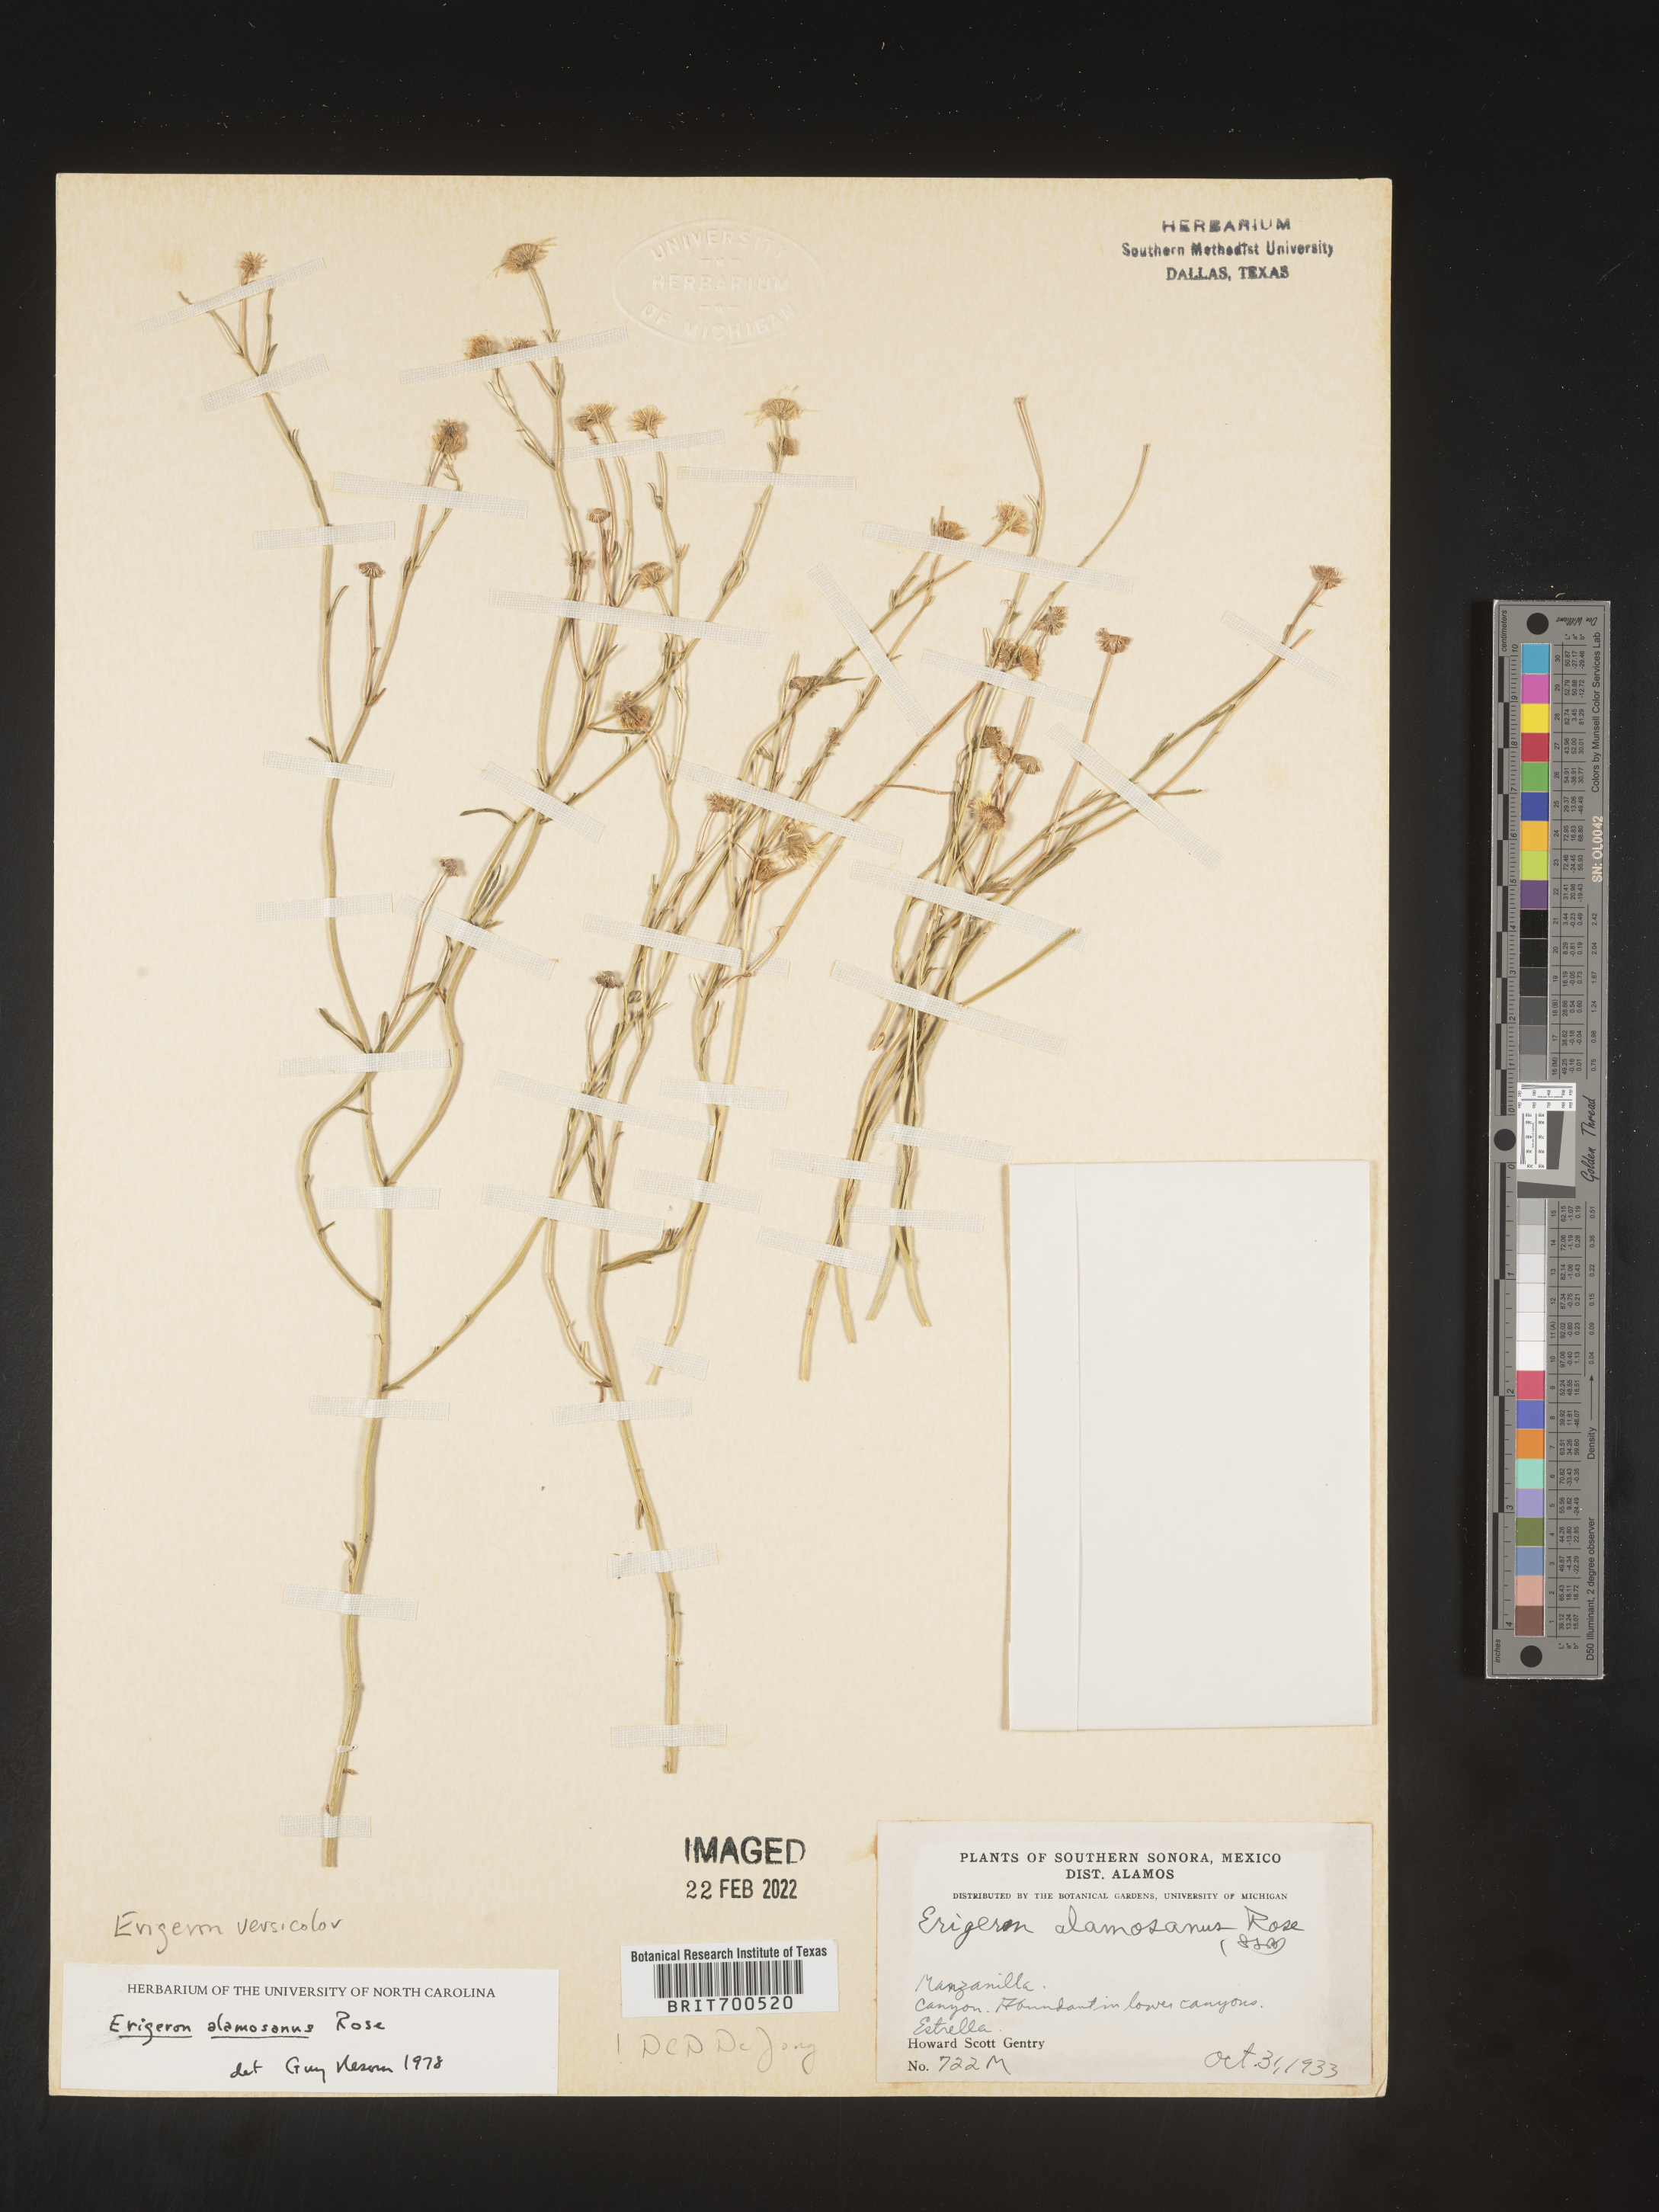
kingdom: Plantae
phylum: Tracheophyta
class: Magnoliopsida
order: Asterales
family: Asteraceae
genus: Erigeron
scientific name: Erigeron versicolor
